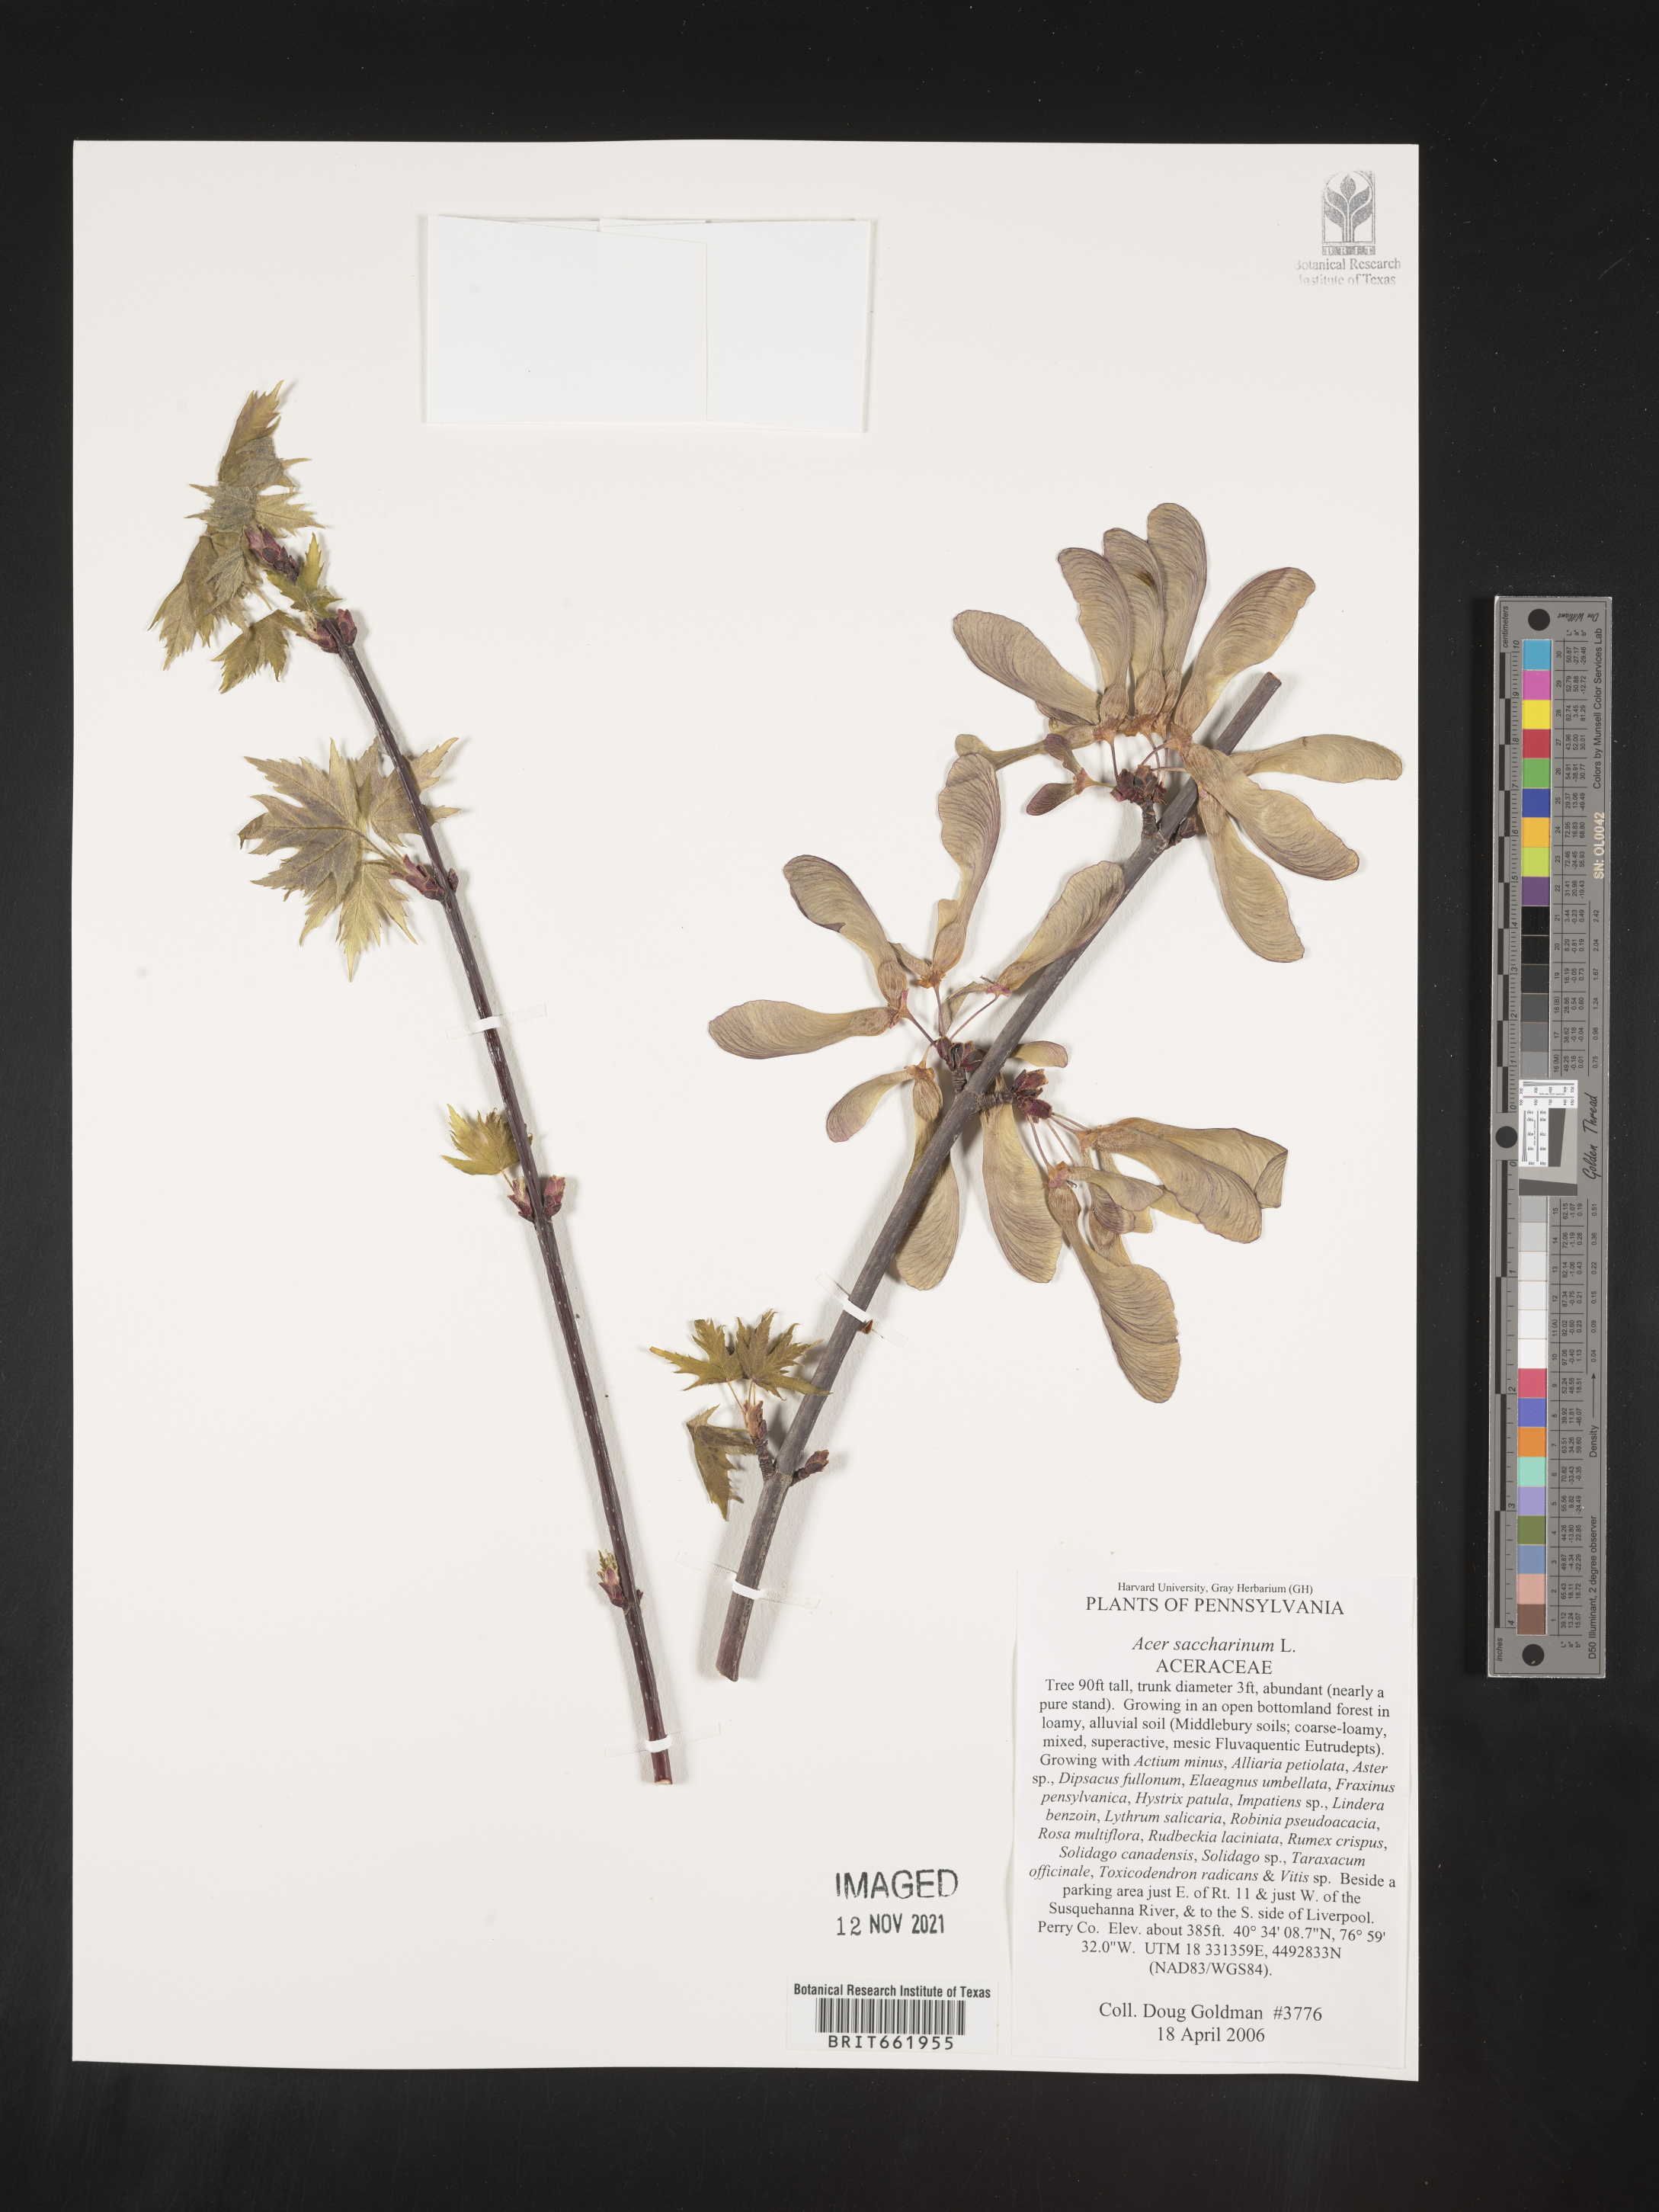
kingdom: Plantae
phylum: Tracheophyta
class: Magnoliopsida
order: Sapindales
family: Sapindaceae
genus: Acer
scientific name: Acer saccharum
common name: Sugar maple
